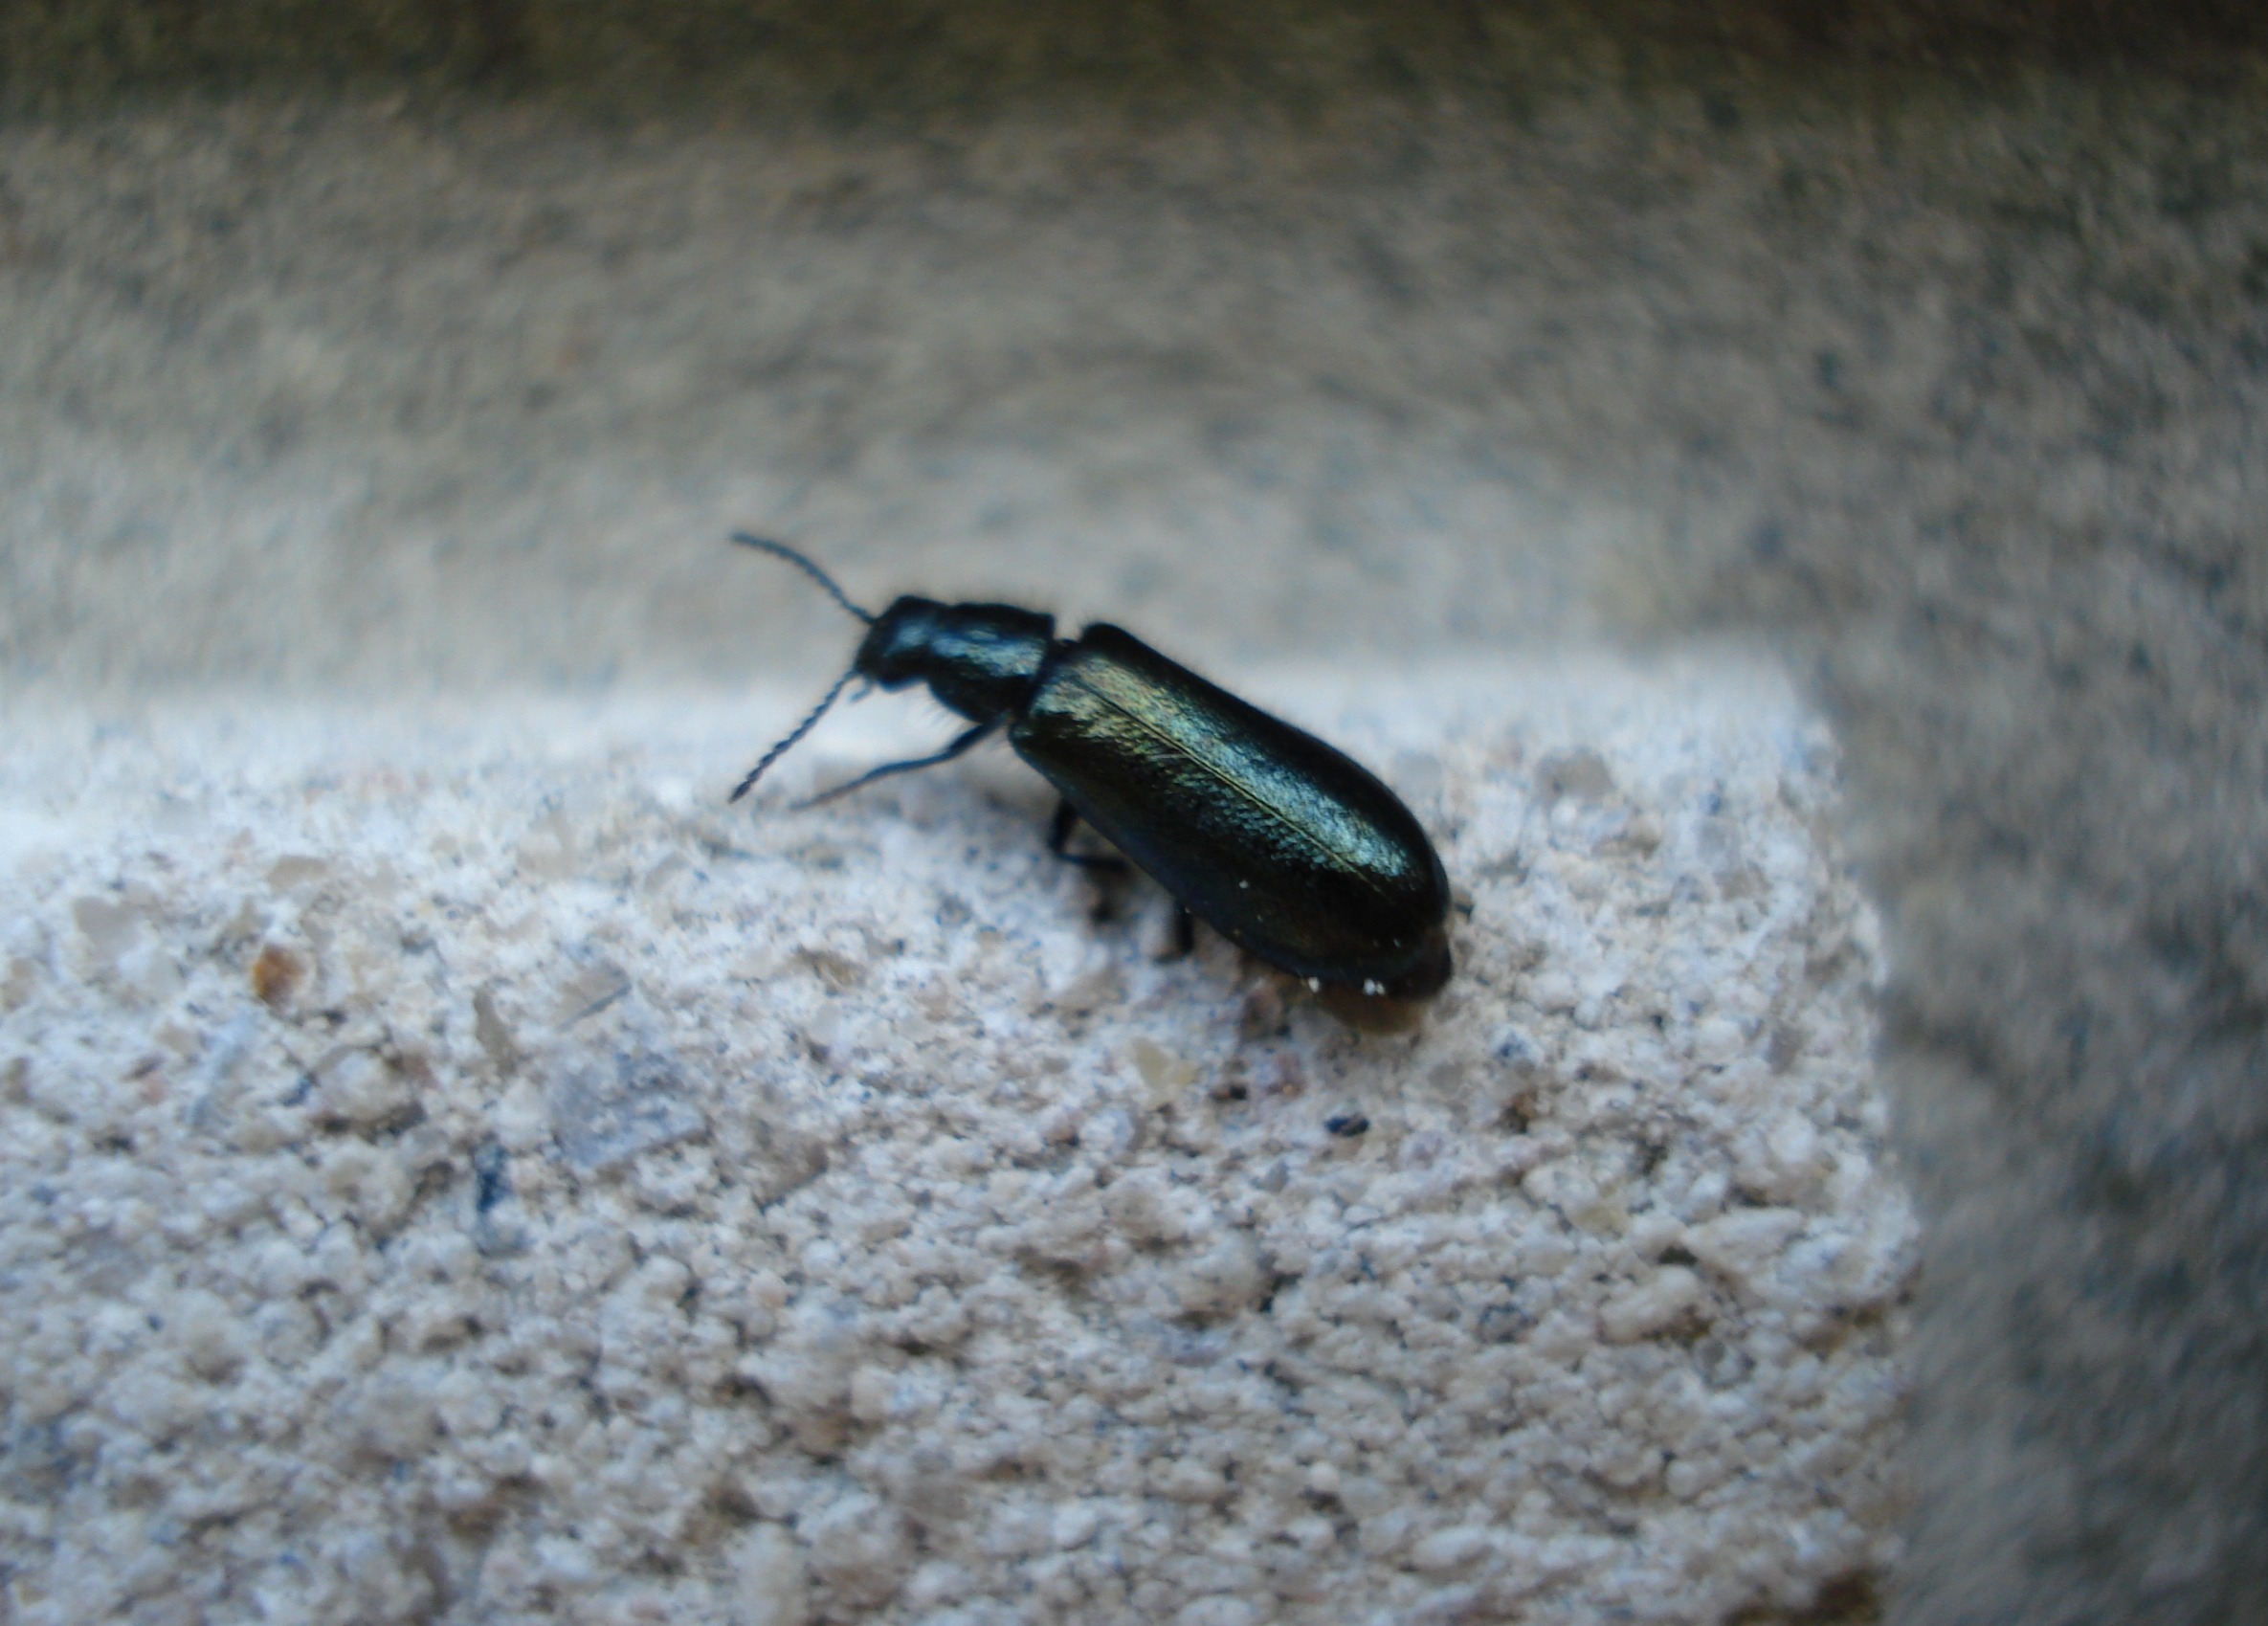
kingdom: Animalia
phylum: Arthropoda
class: Insecta
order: Coleoptera
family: Melyridae
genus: Dasytes
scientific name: Dasytes caeruleus
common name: Blå malakitbille
